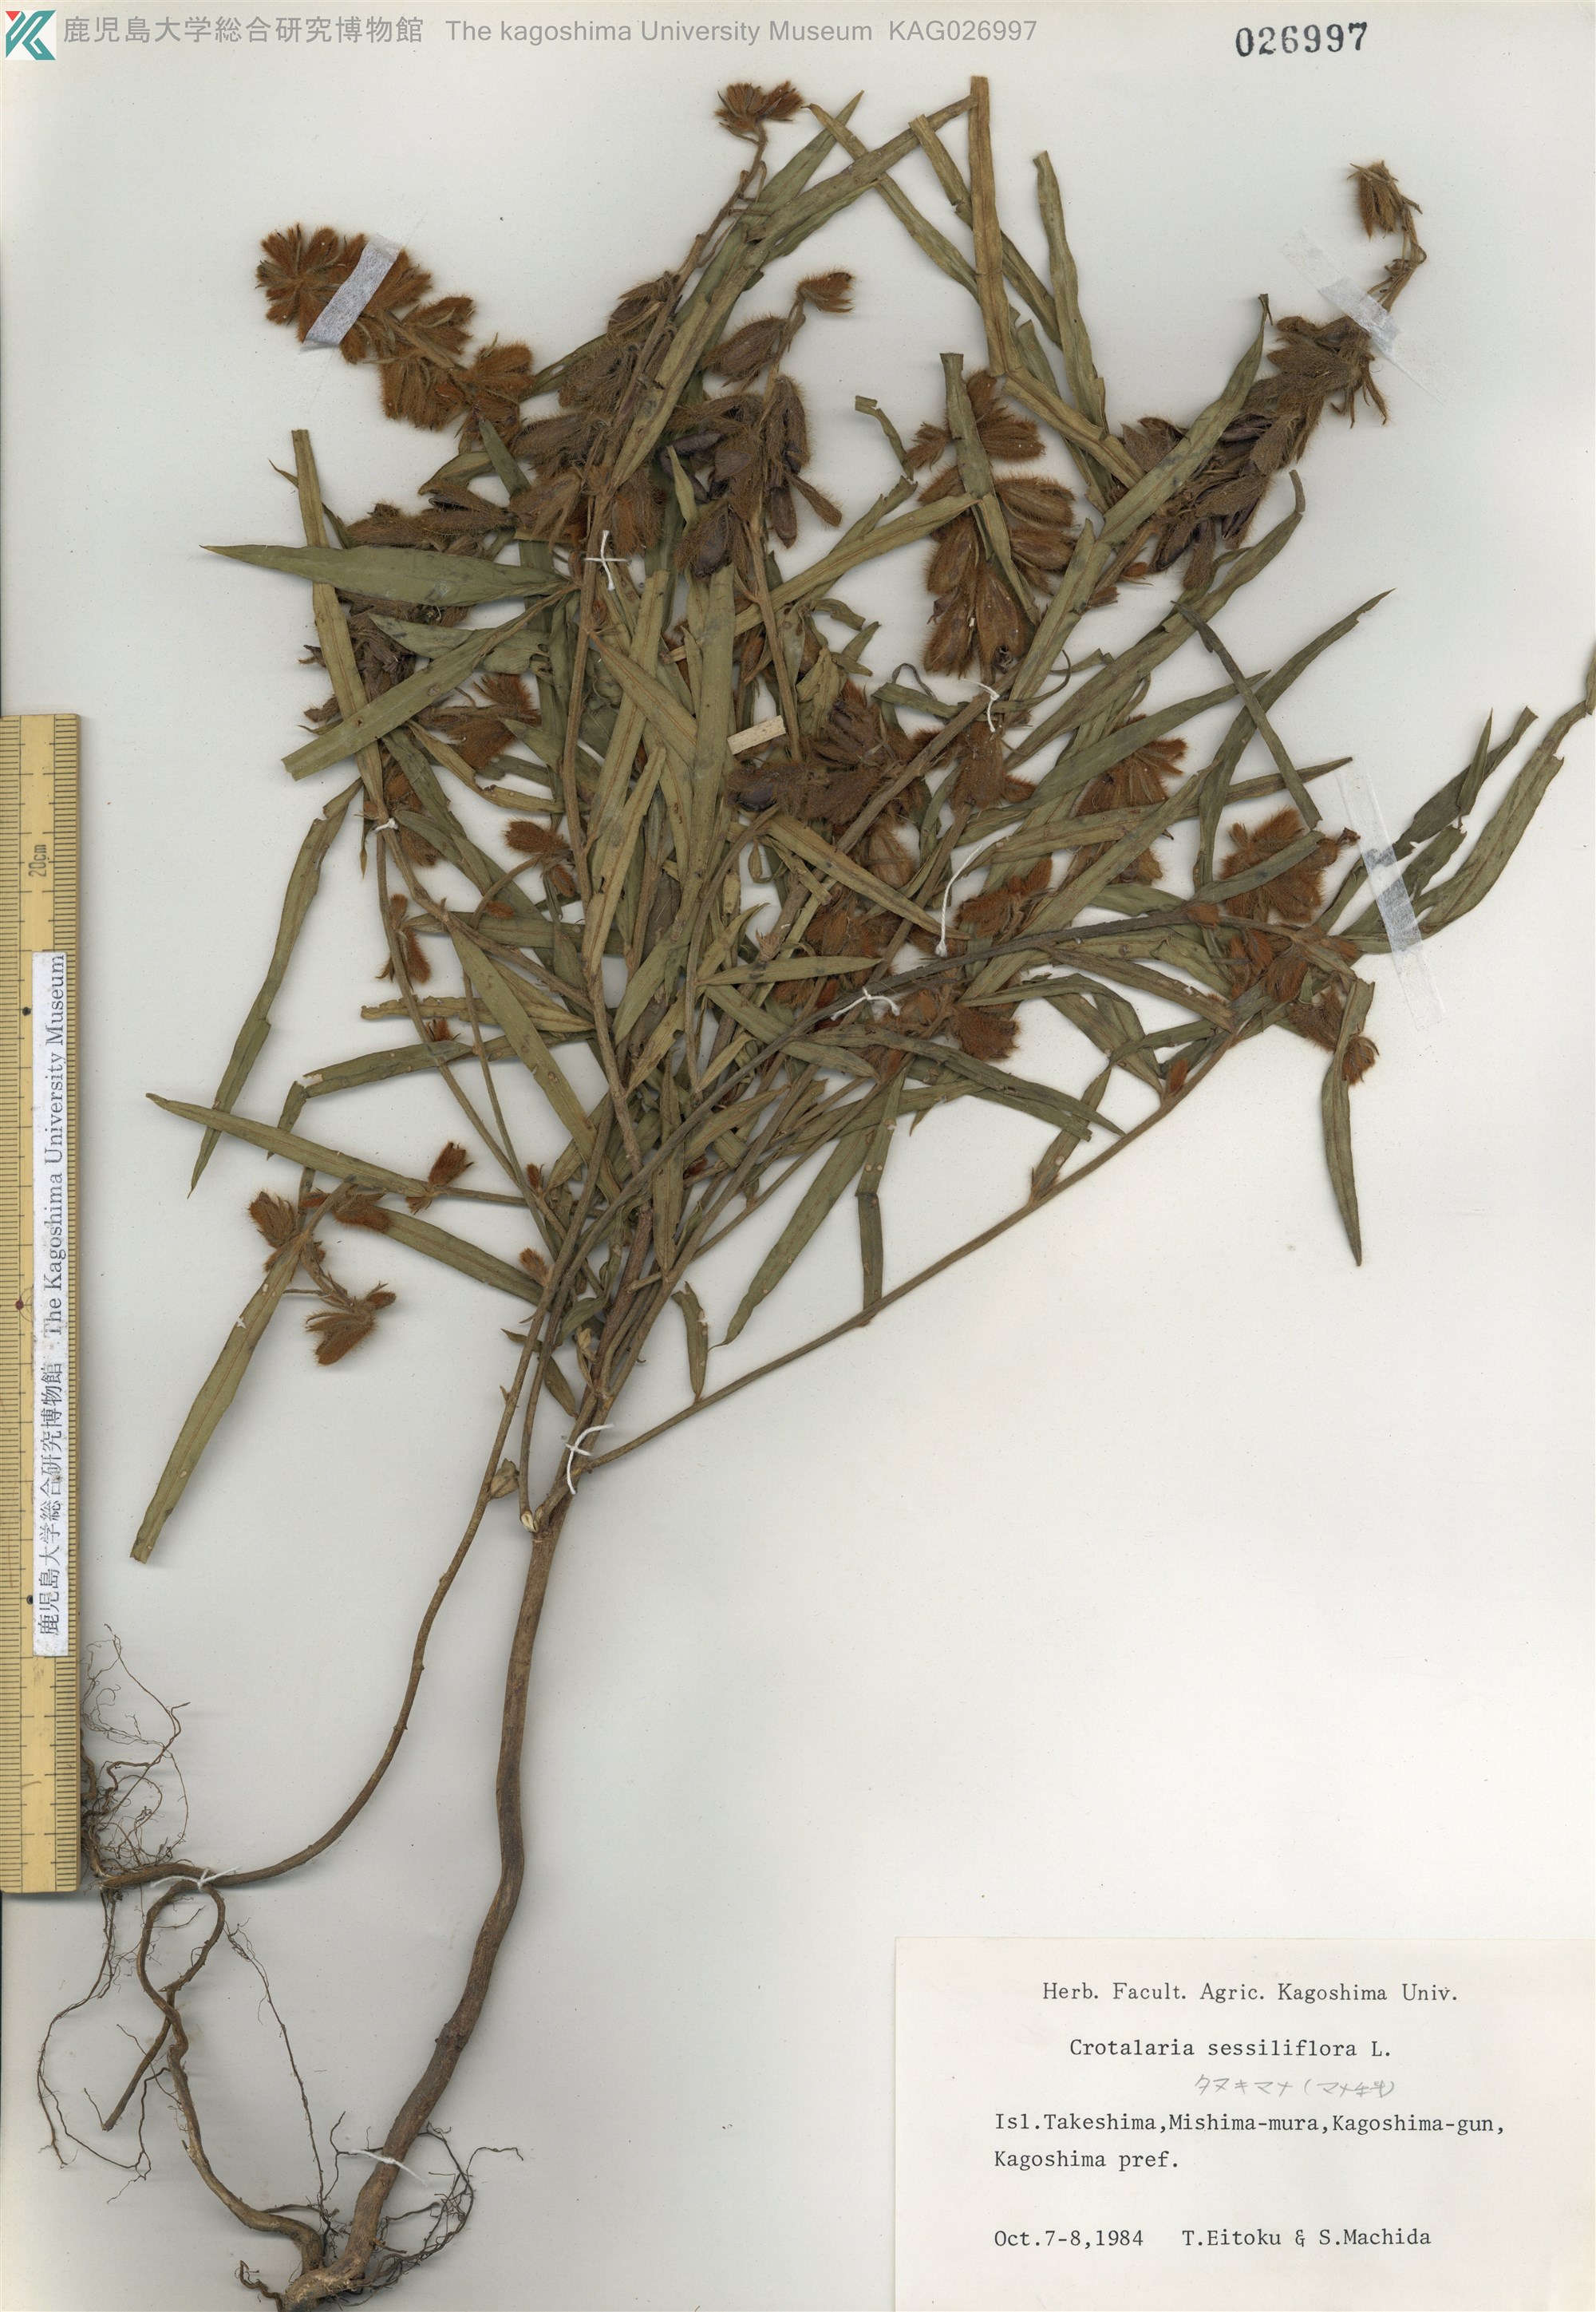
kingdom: Plantae
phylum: Tracheophyta
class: Magnoliopsida
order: Fabales
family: Fabaceae
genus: Crotalaria
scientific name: Crotalaria sessiliflora
